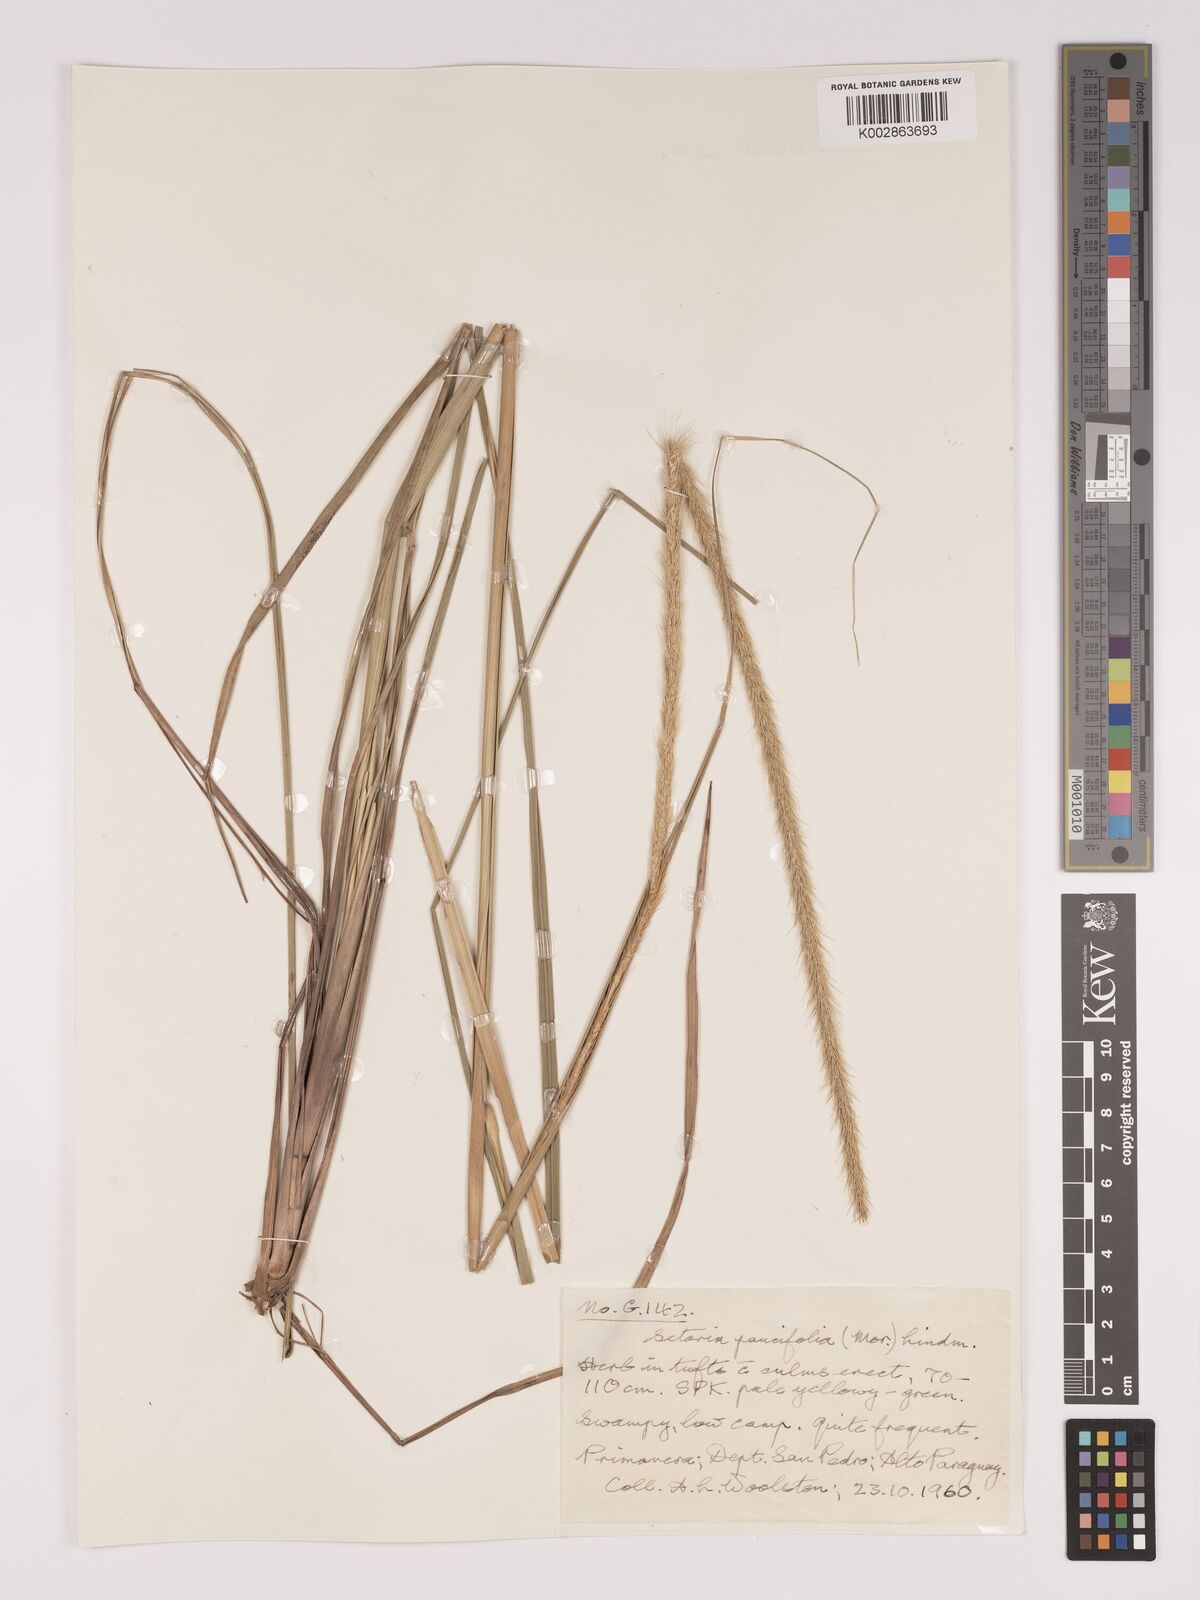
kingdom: Plantae
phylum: Tracheophyta
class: Liliopsida
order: Poales
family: Poaceae
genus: Setaria
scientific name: Setaria paucifolia
